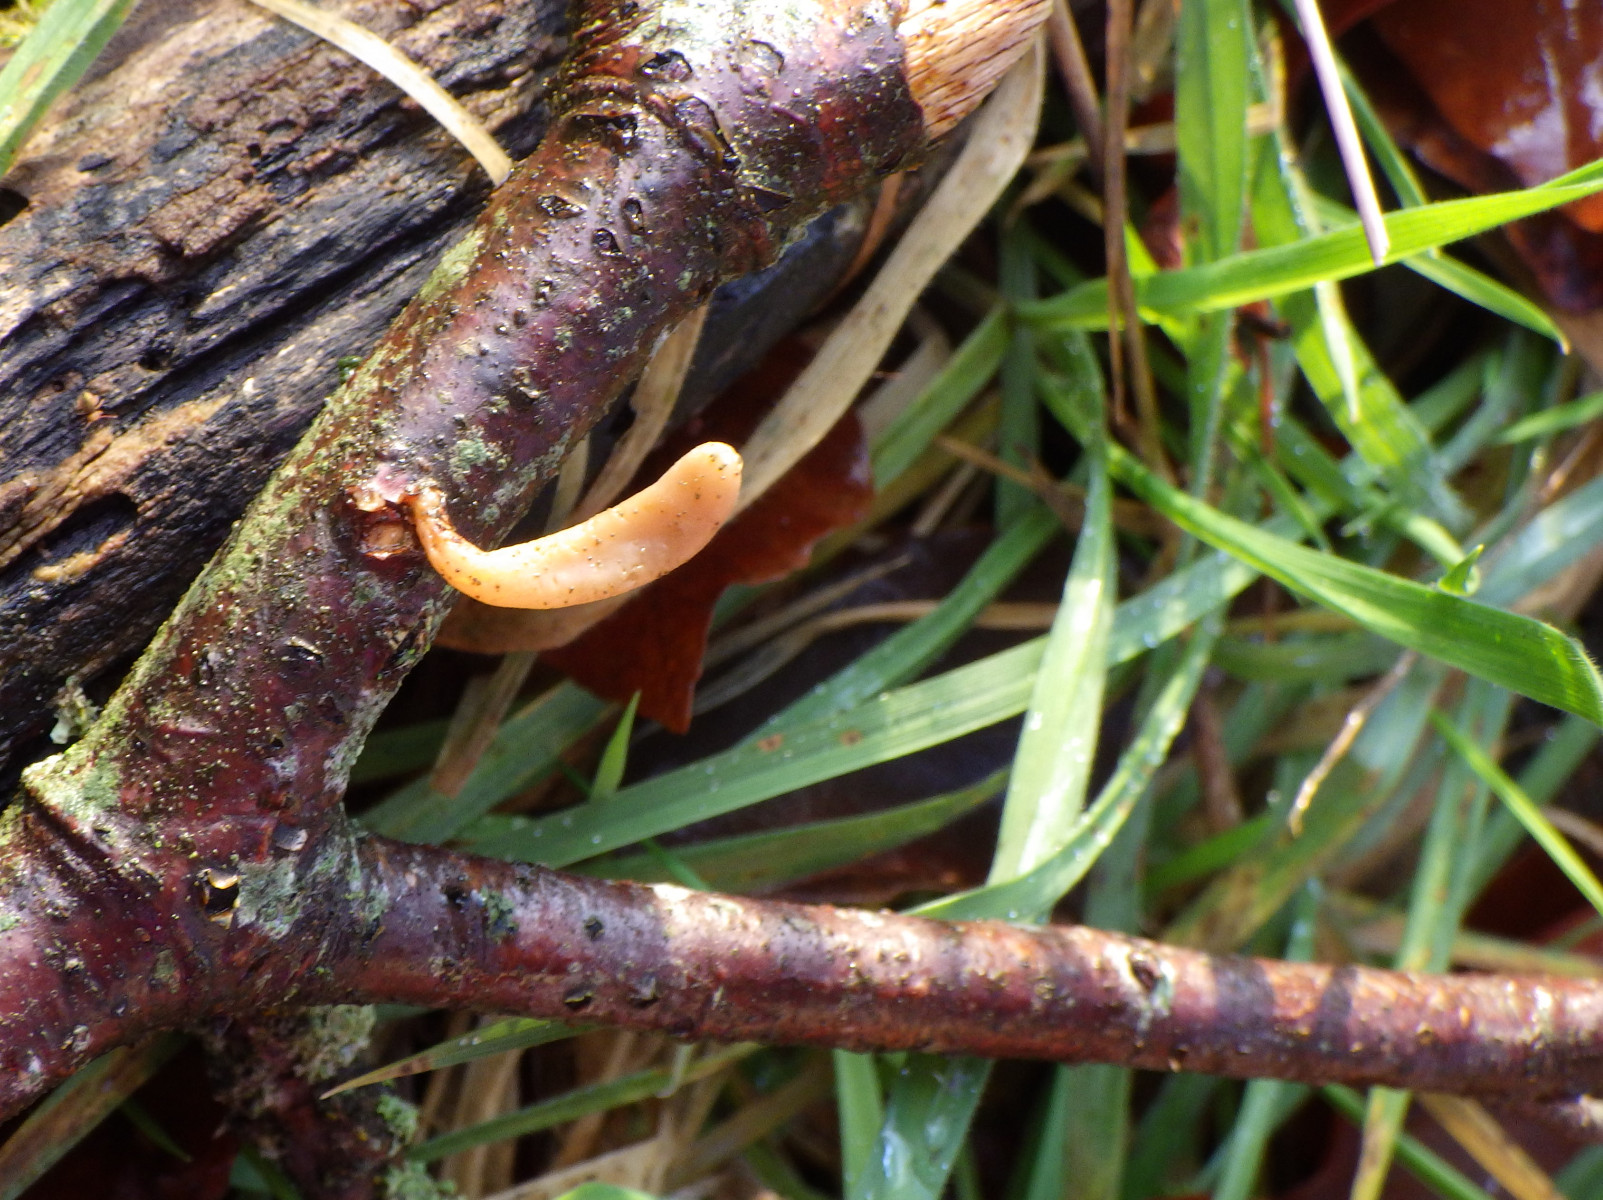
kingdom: Fungi
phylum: Basidiomycota
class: Agaricomycetes
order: Agaricales
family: Typhulaceae
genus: Typhula
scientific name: Typhula contorta
